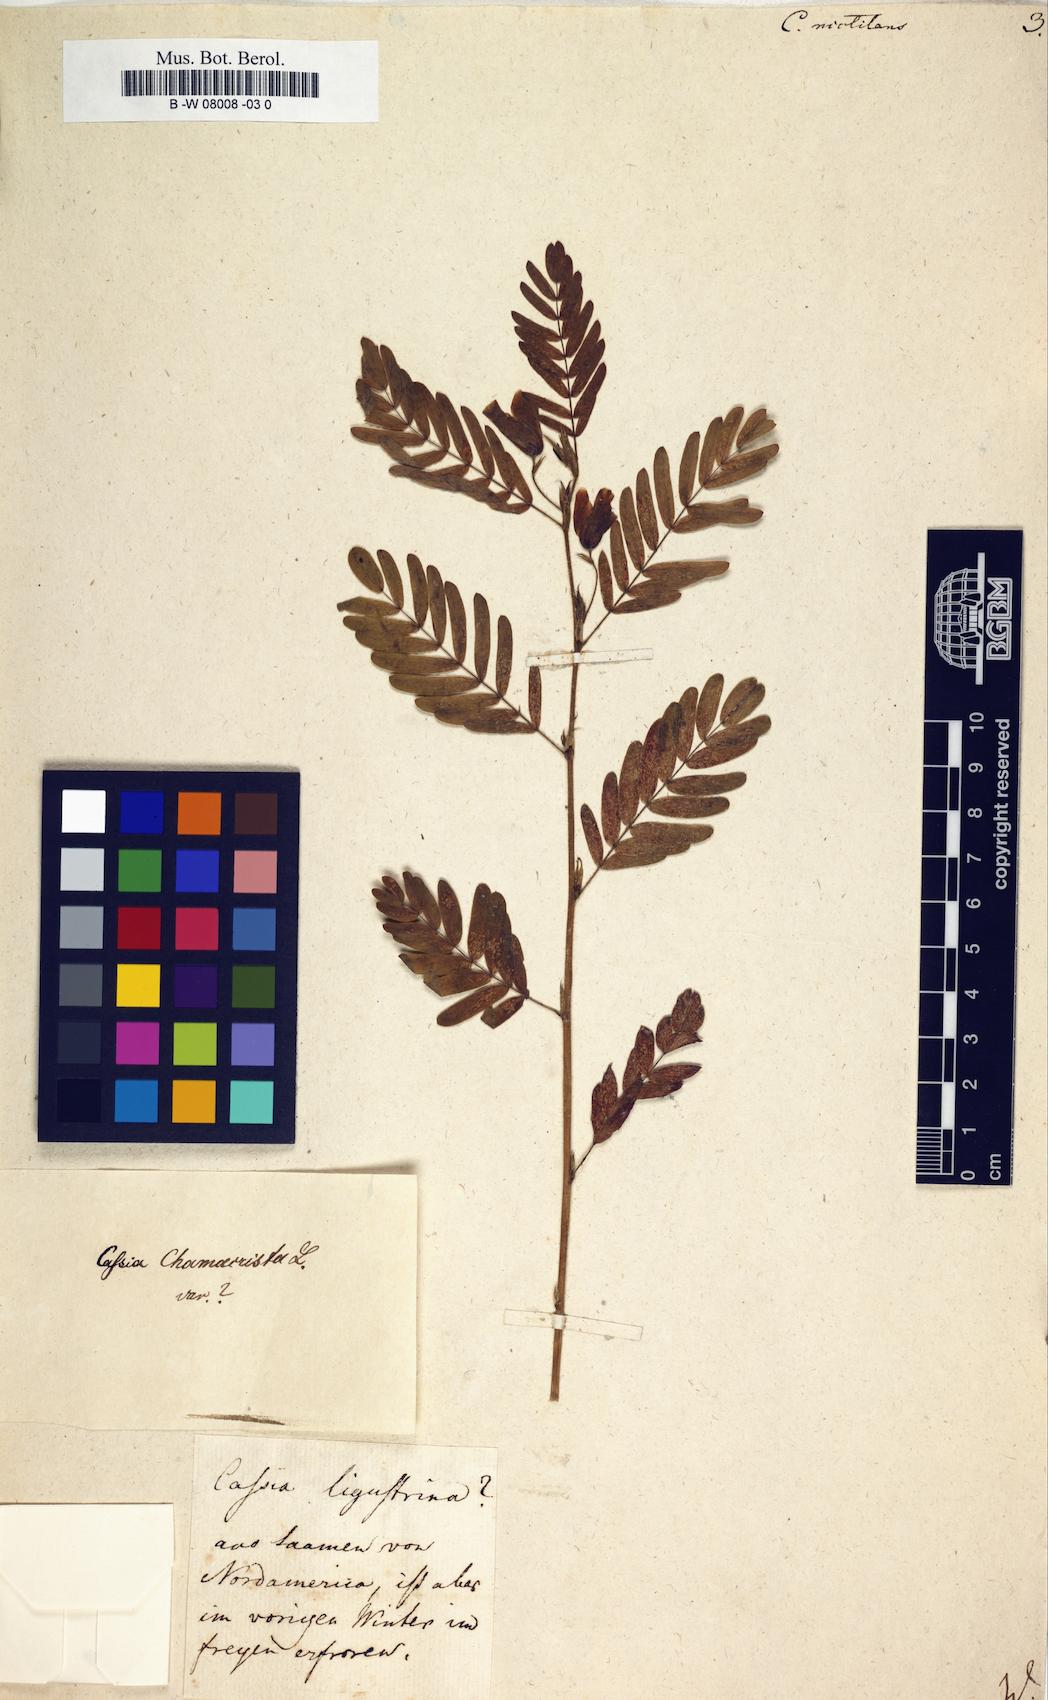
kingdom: Plantae
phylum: Tracheophyta
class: Magnoliopsida
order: Fabales
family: Fabaceae
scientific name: Fabaceae
